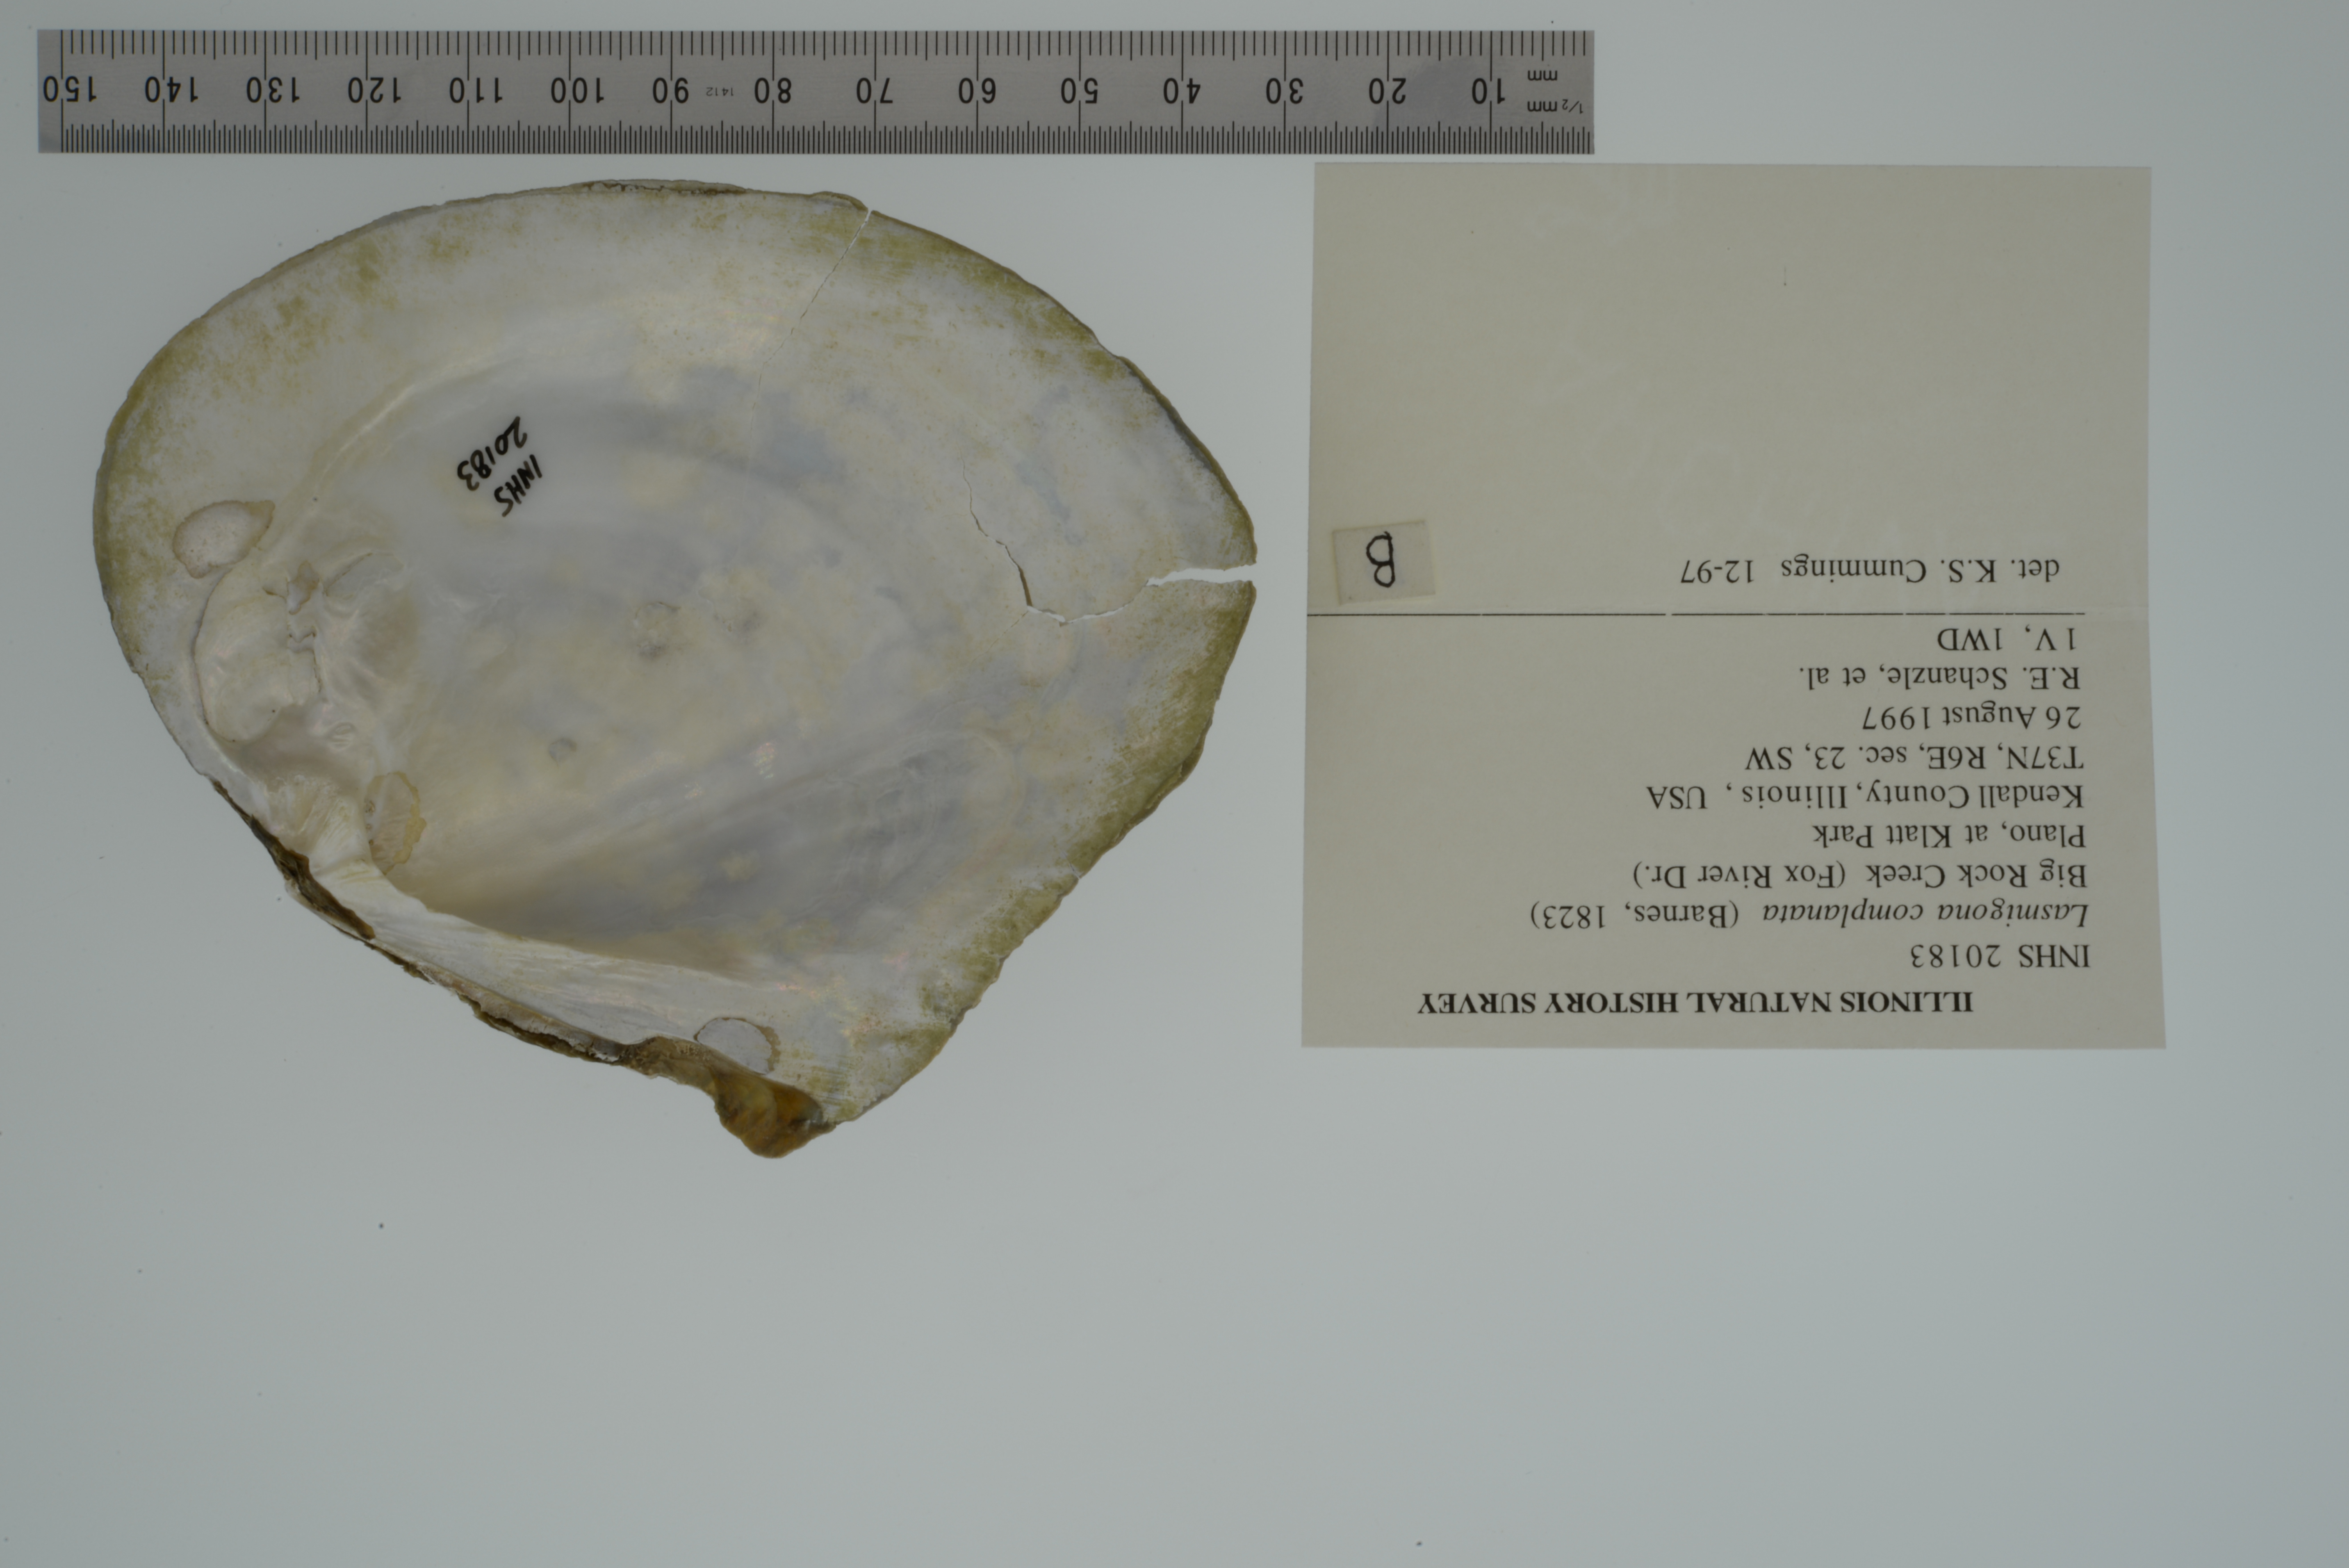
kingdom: Animalia
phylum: Mollusca
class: Bivalvia
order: Unionida
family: Unionidae
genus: Lasmigona
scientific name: Lasmigona complanata
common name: White heelsplitter
